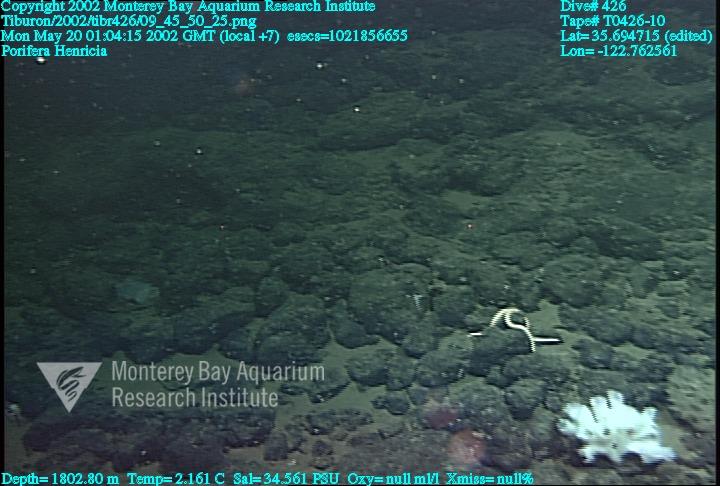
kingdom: Animalia
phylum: Porifera
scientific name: Porifera
